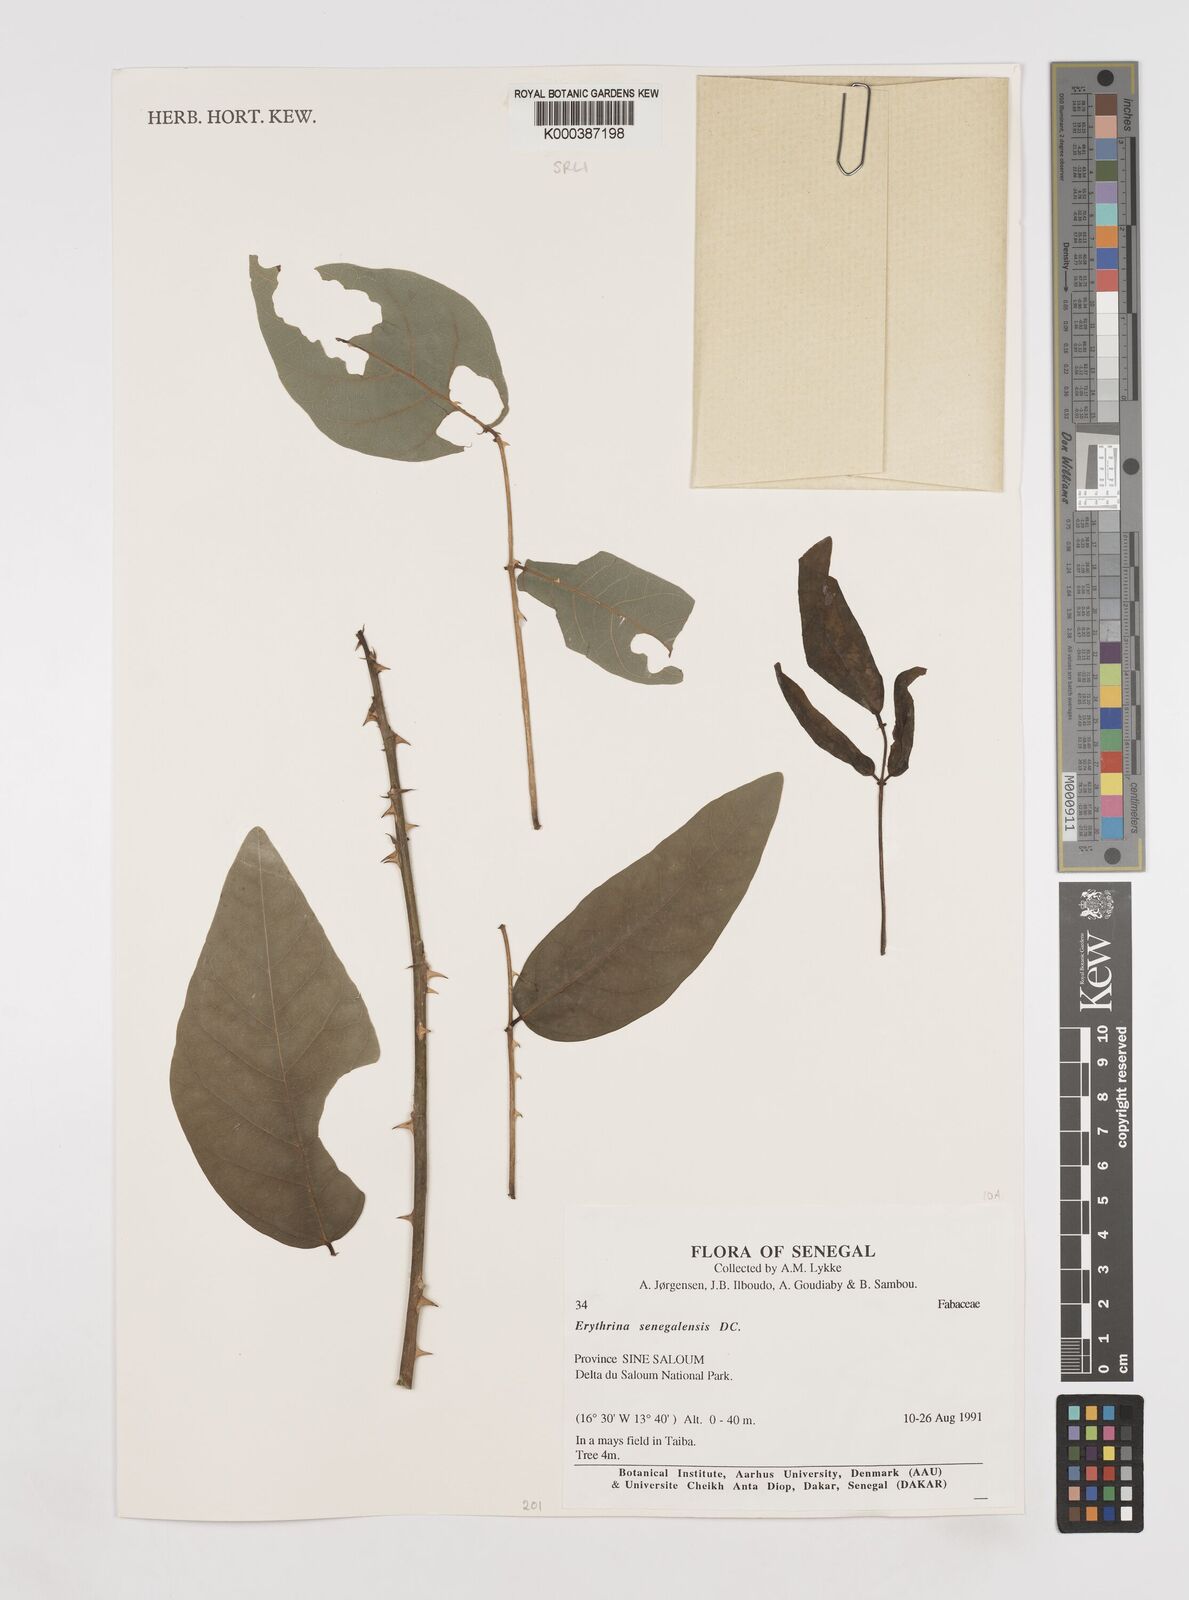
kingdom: Plantae
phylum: Tracheophyta
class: Magnoliopsida
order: Fabales
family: Fabaceae
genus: Erythrina
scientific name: Erythrina senegalensis
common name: Senegal coraltree
